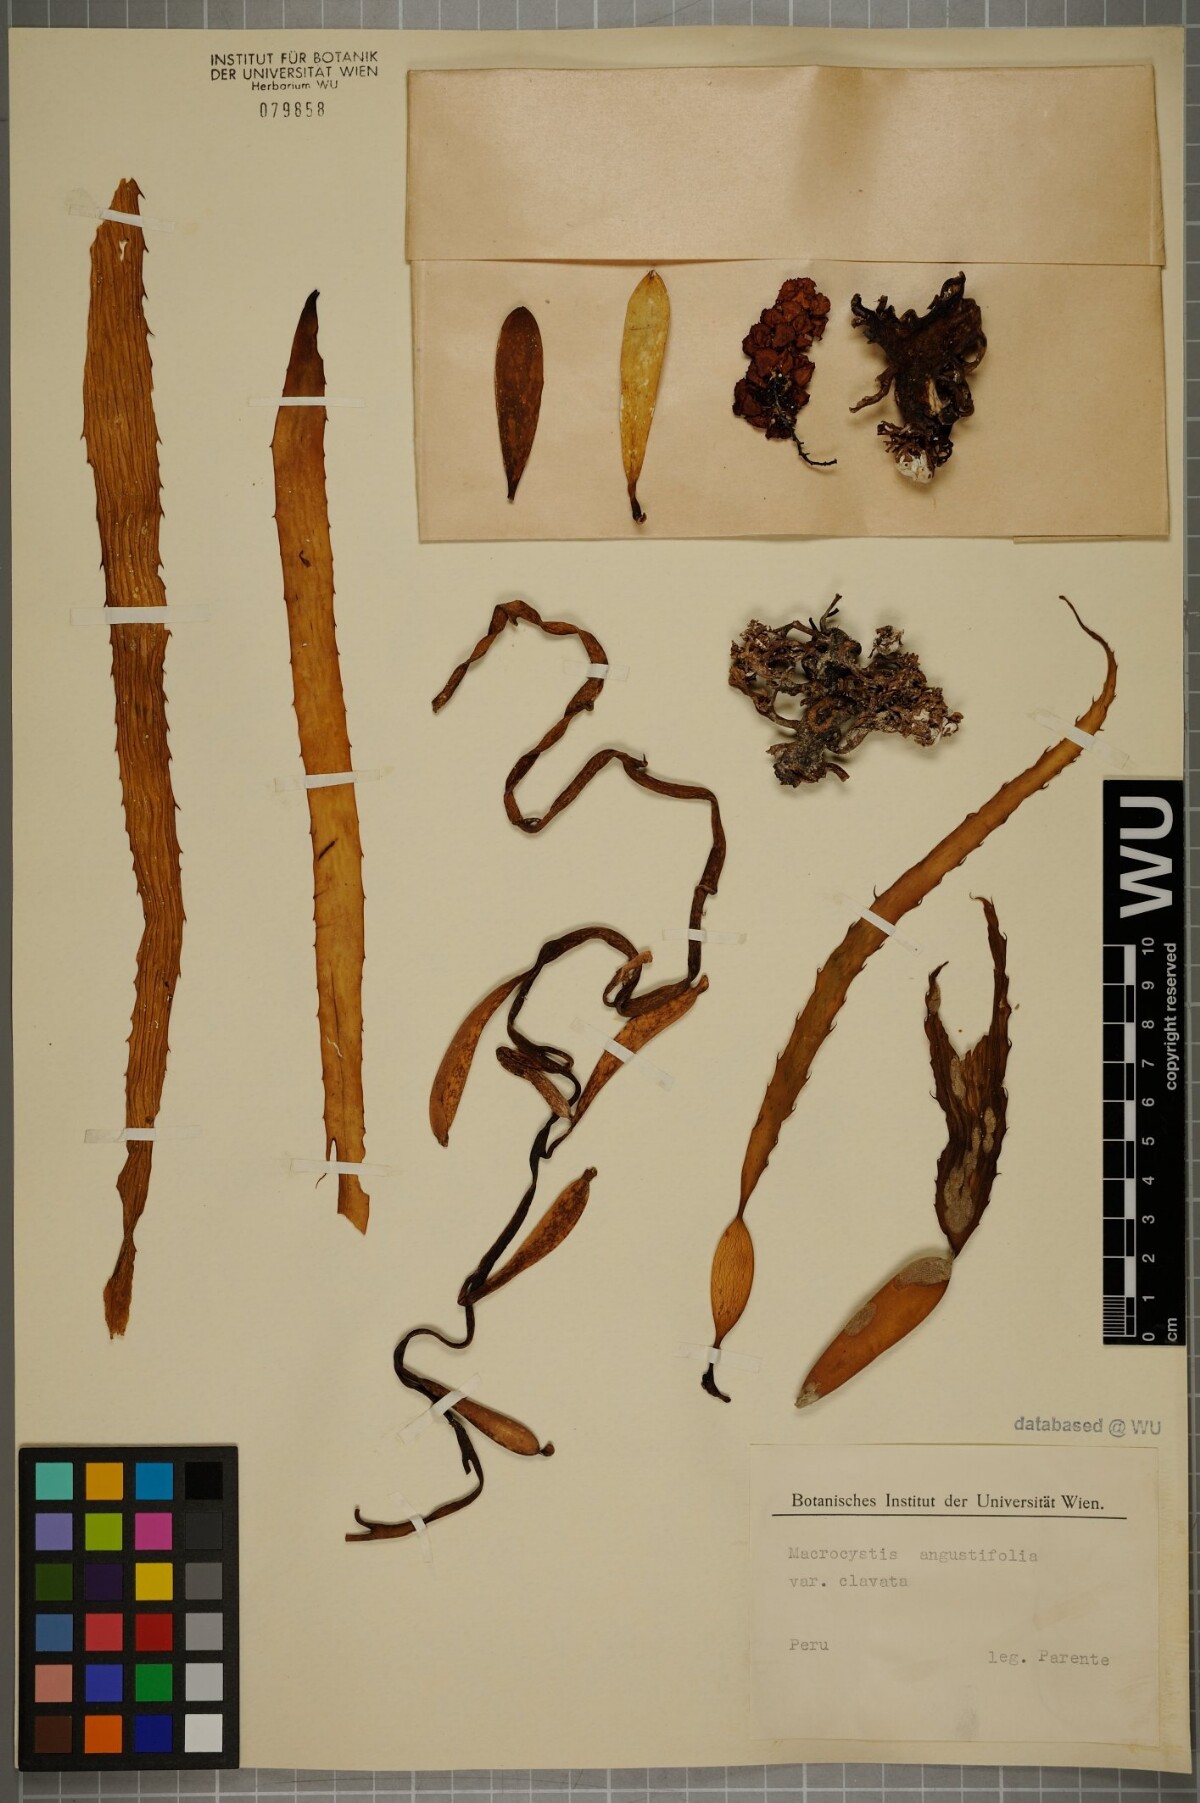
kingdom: Chromista
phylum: Ochrophyta
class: Phaeophyceae
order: Laminariales
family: Laminariaceae
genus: Macrocystis
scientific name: Macrocystis angustifolia
